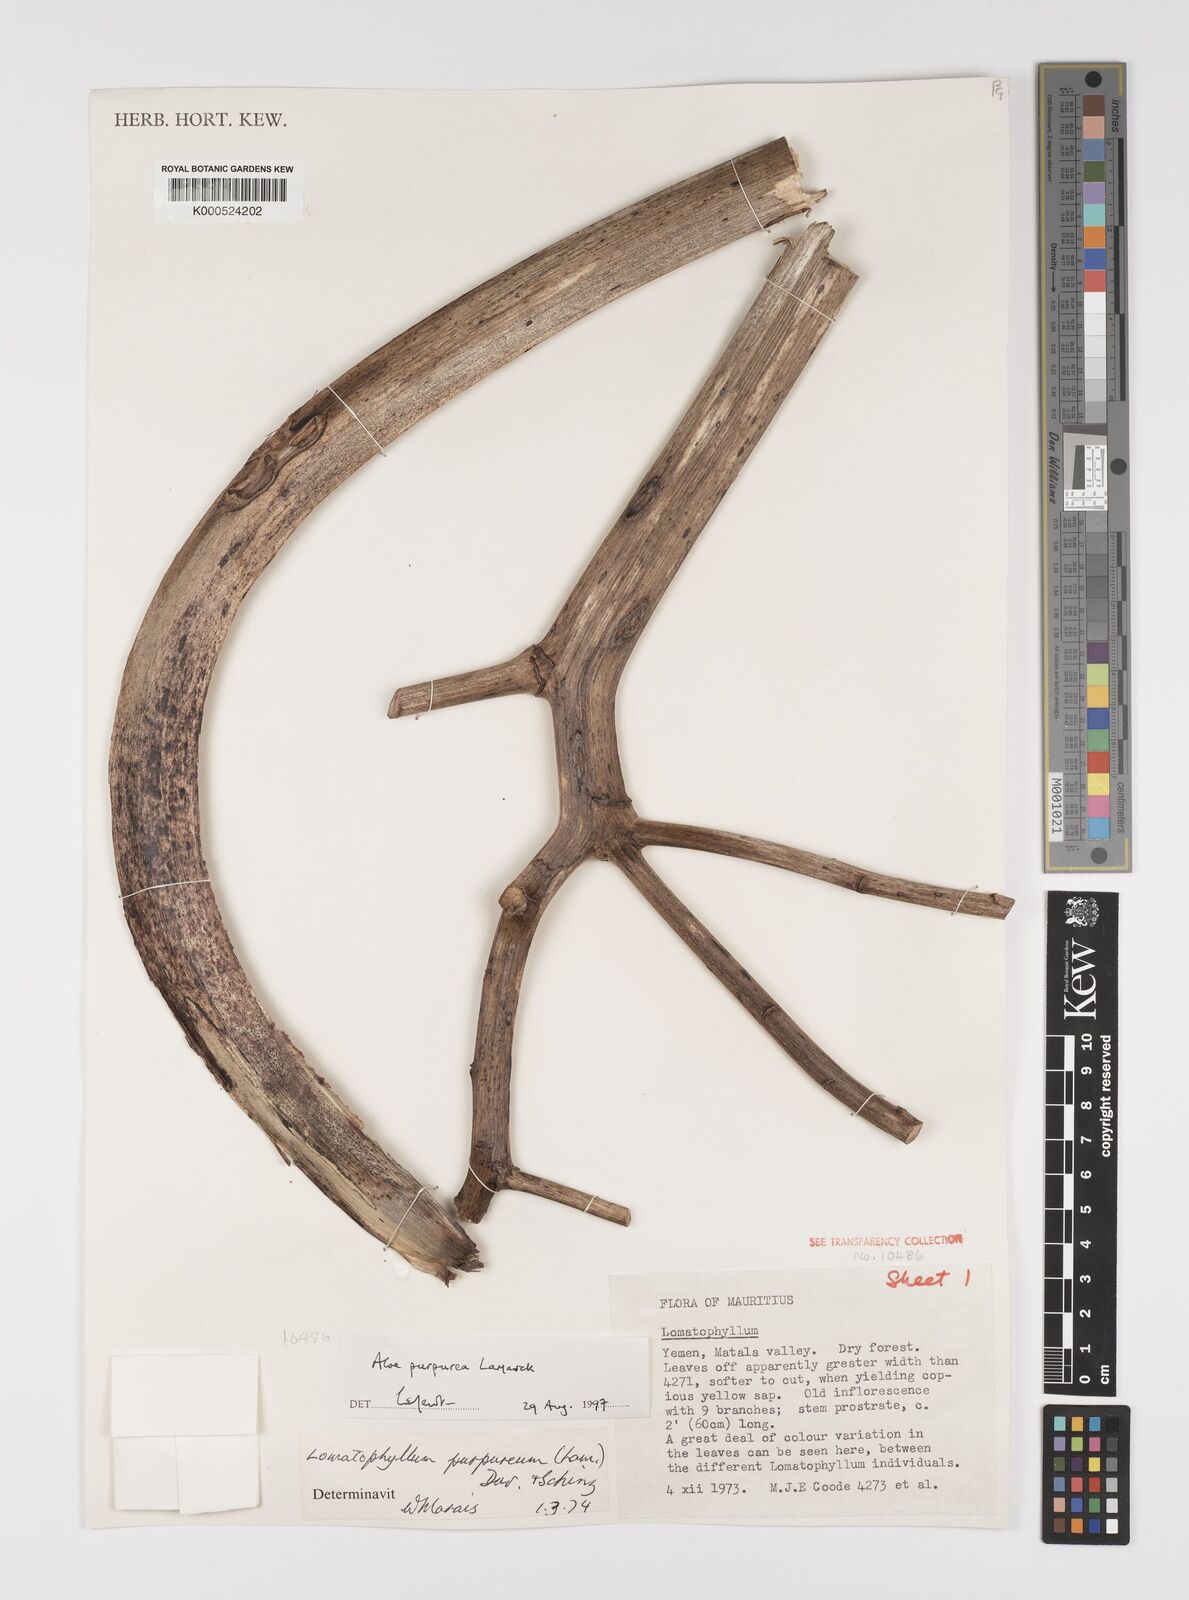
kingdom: Plantae
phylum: Tracheophyta
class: Liliopsida
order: Asparagales
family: Asphodelaceae
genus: Aloe
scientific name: Aloe purpurea
